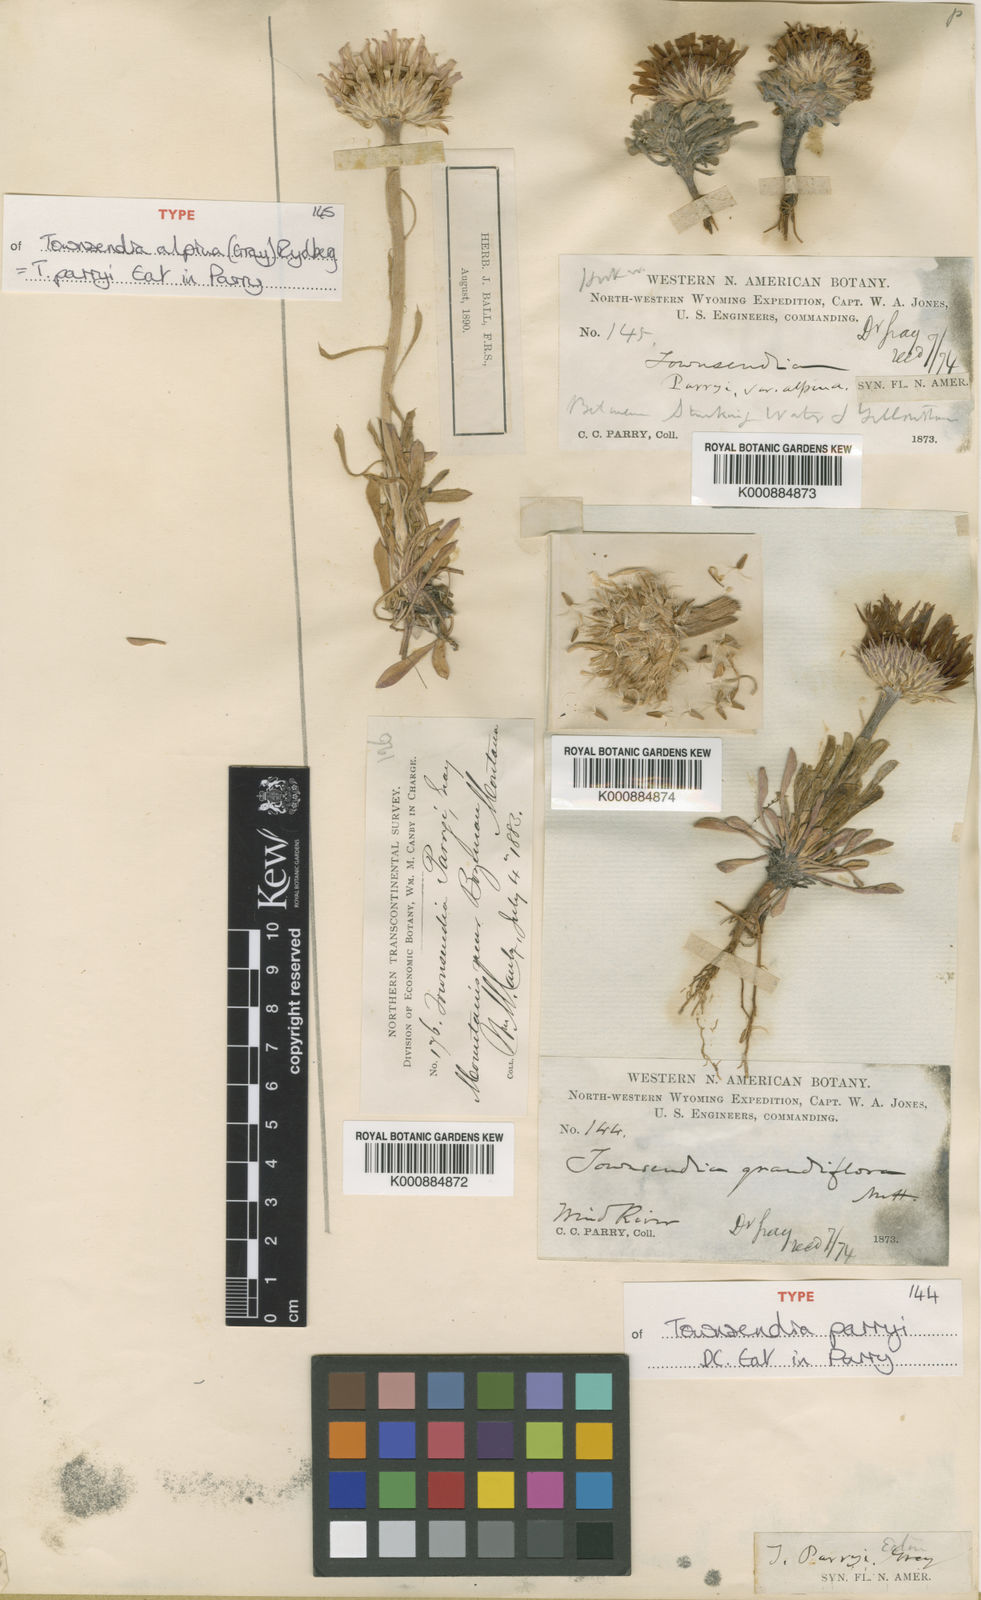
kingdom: Plantae
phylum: Tracheophyta
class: Magnoliopsida
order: Asterales
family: Asteraceae
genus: Townsendia
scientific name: Townsendia parryi
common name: Parry's townsend daisy
